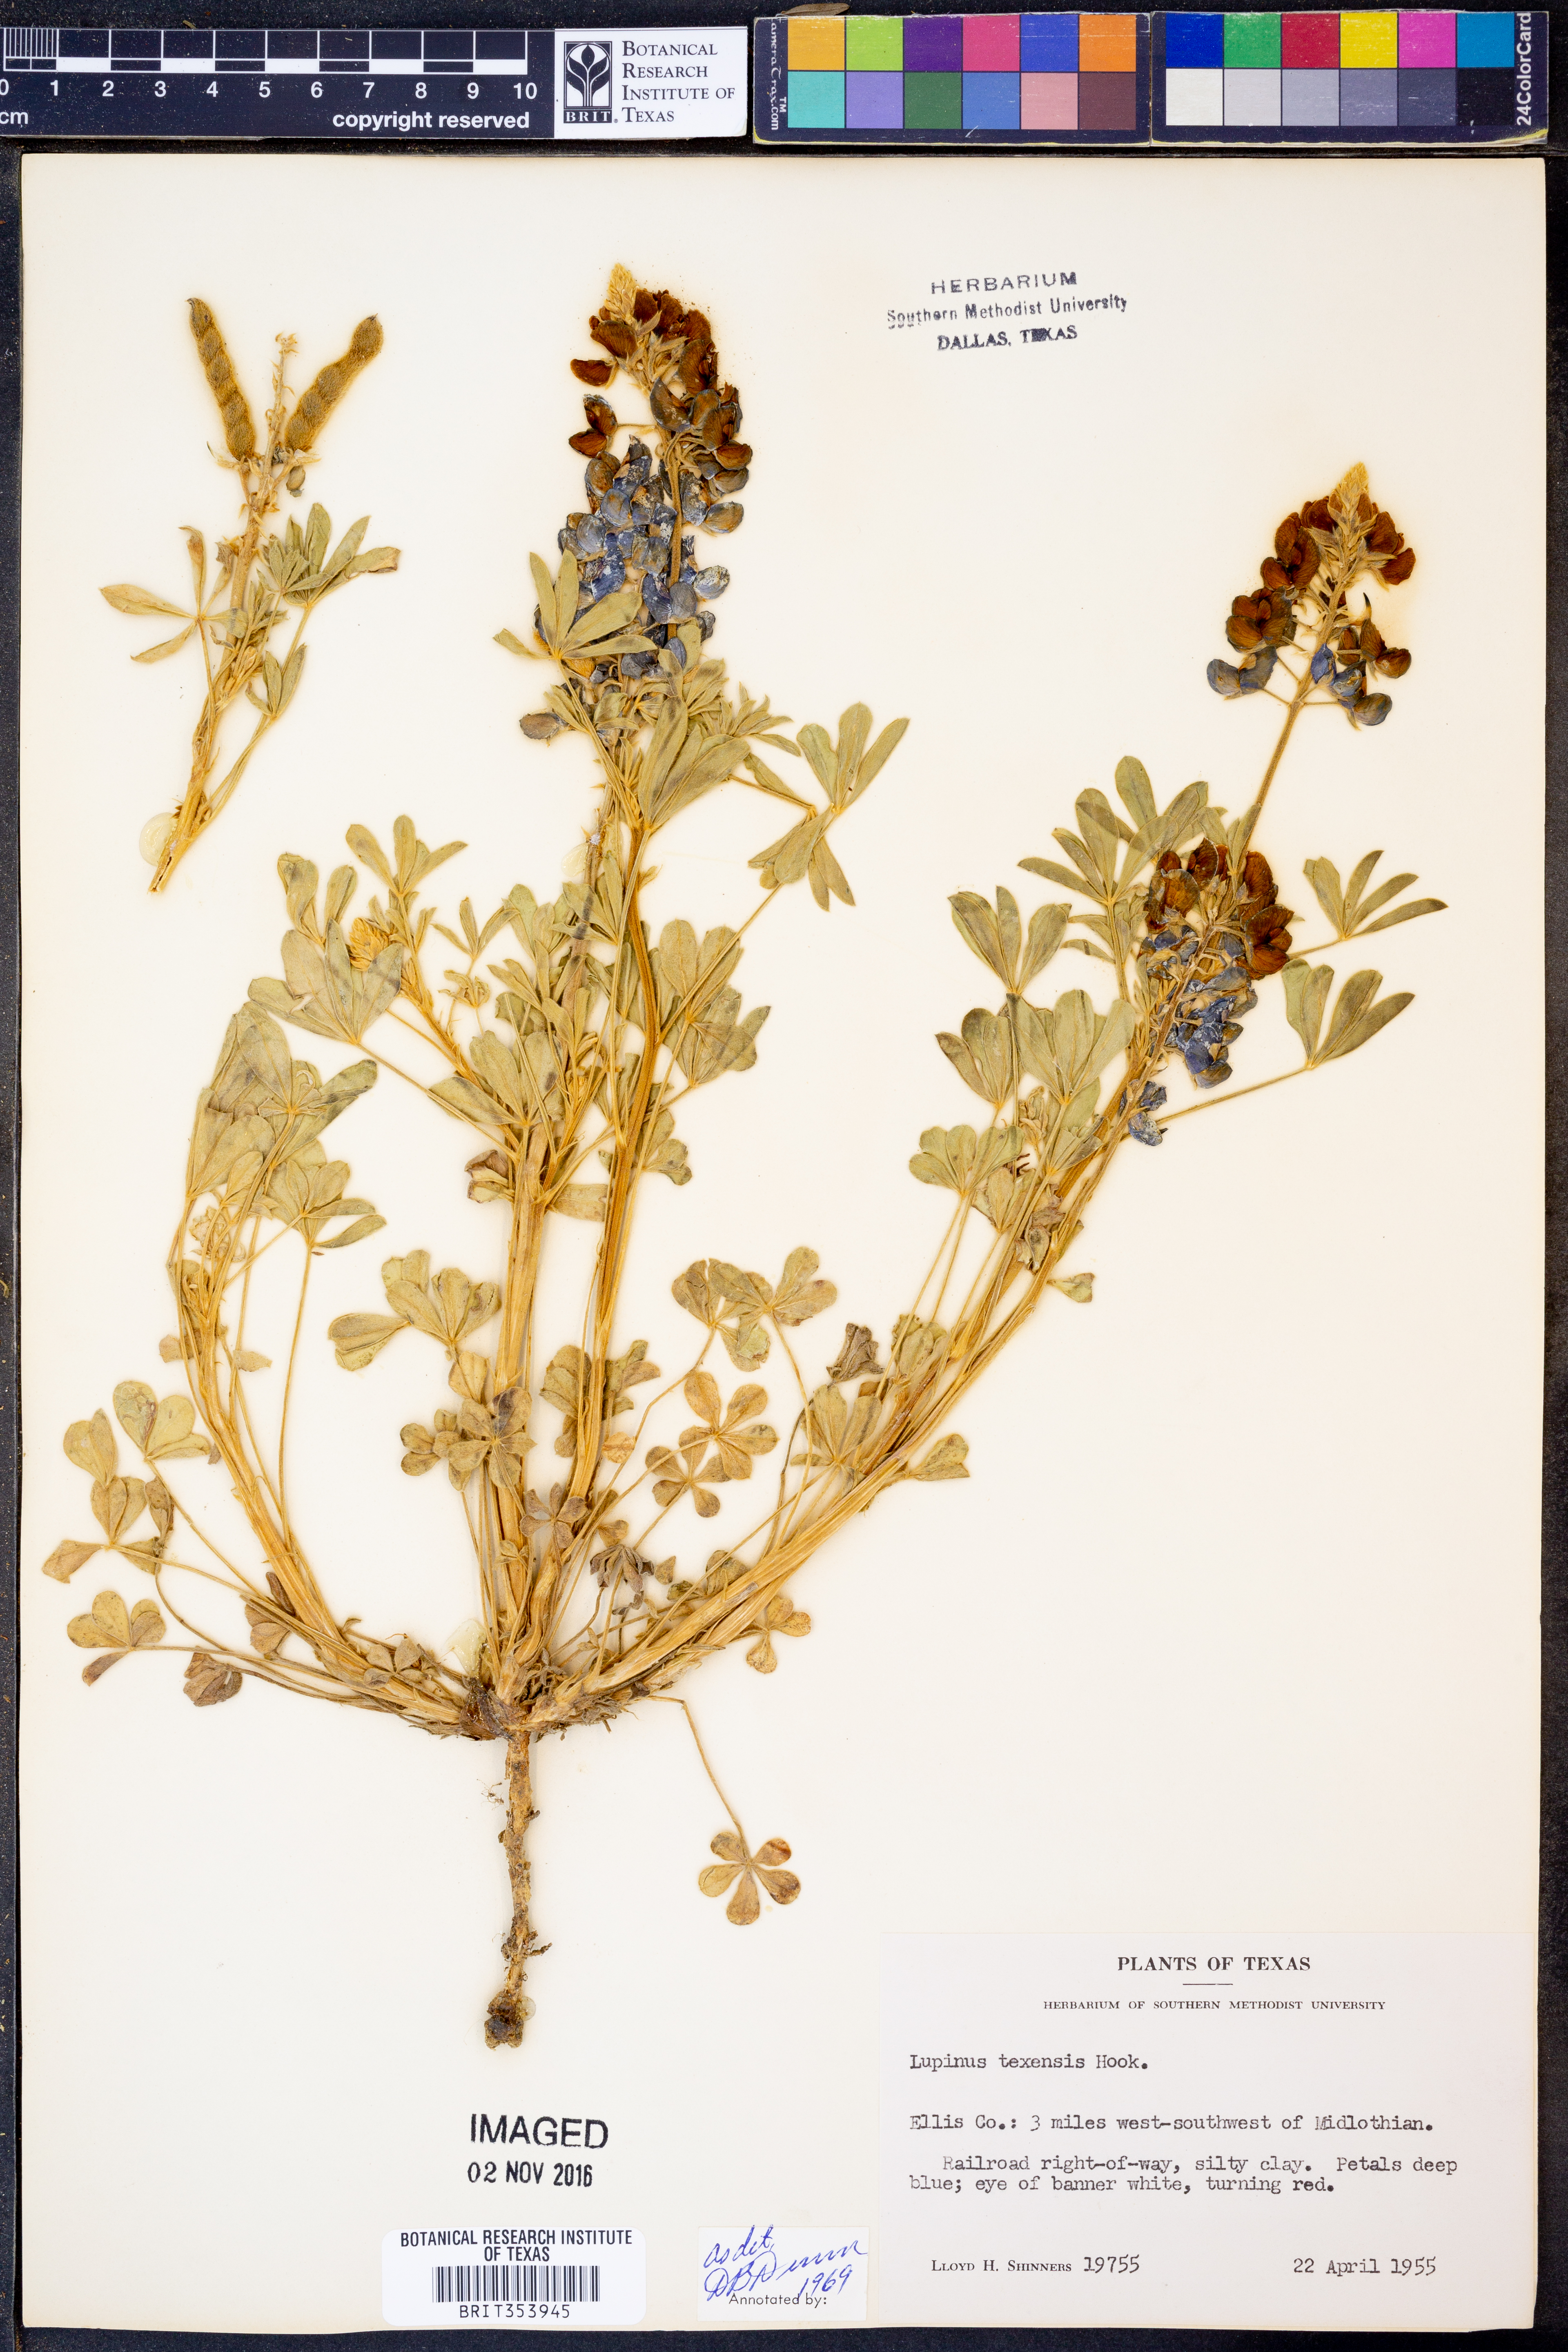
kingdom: Plantae
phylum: Tracheophyta
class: Magnoliopsida
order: Fabales
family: Fabaceae
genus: Lupinus
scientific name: Lupinus texensis
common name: Texas bluebonnet
